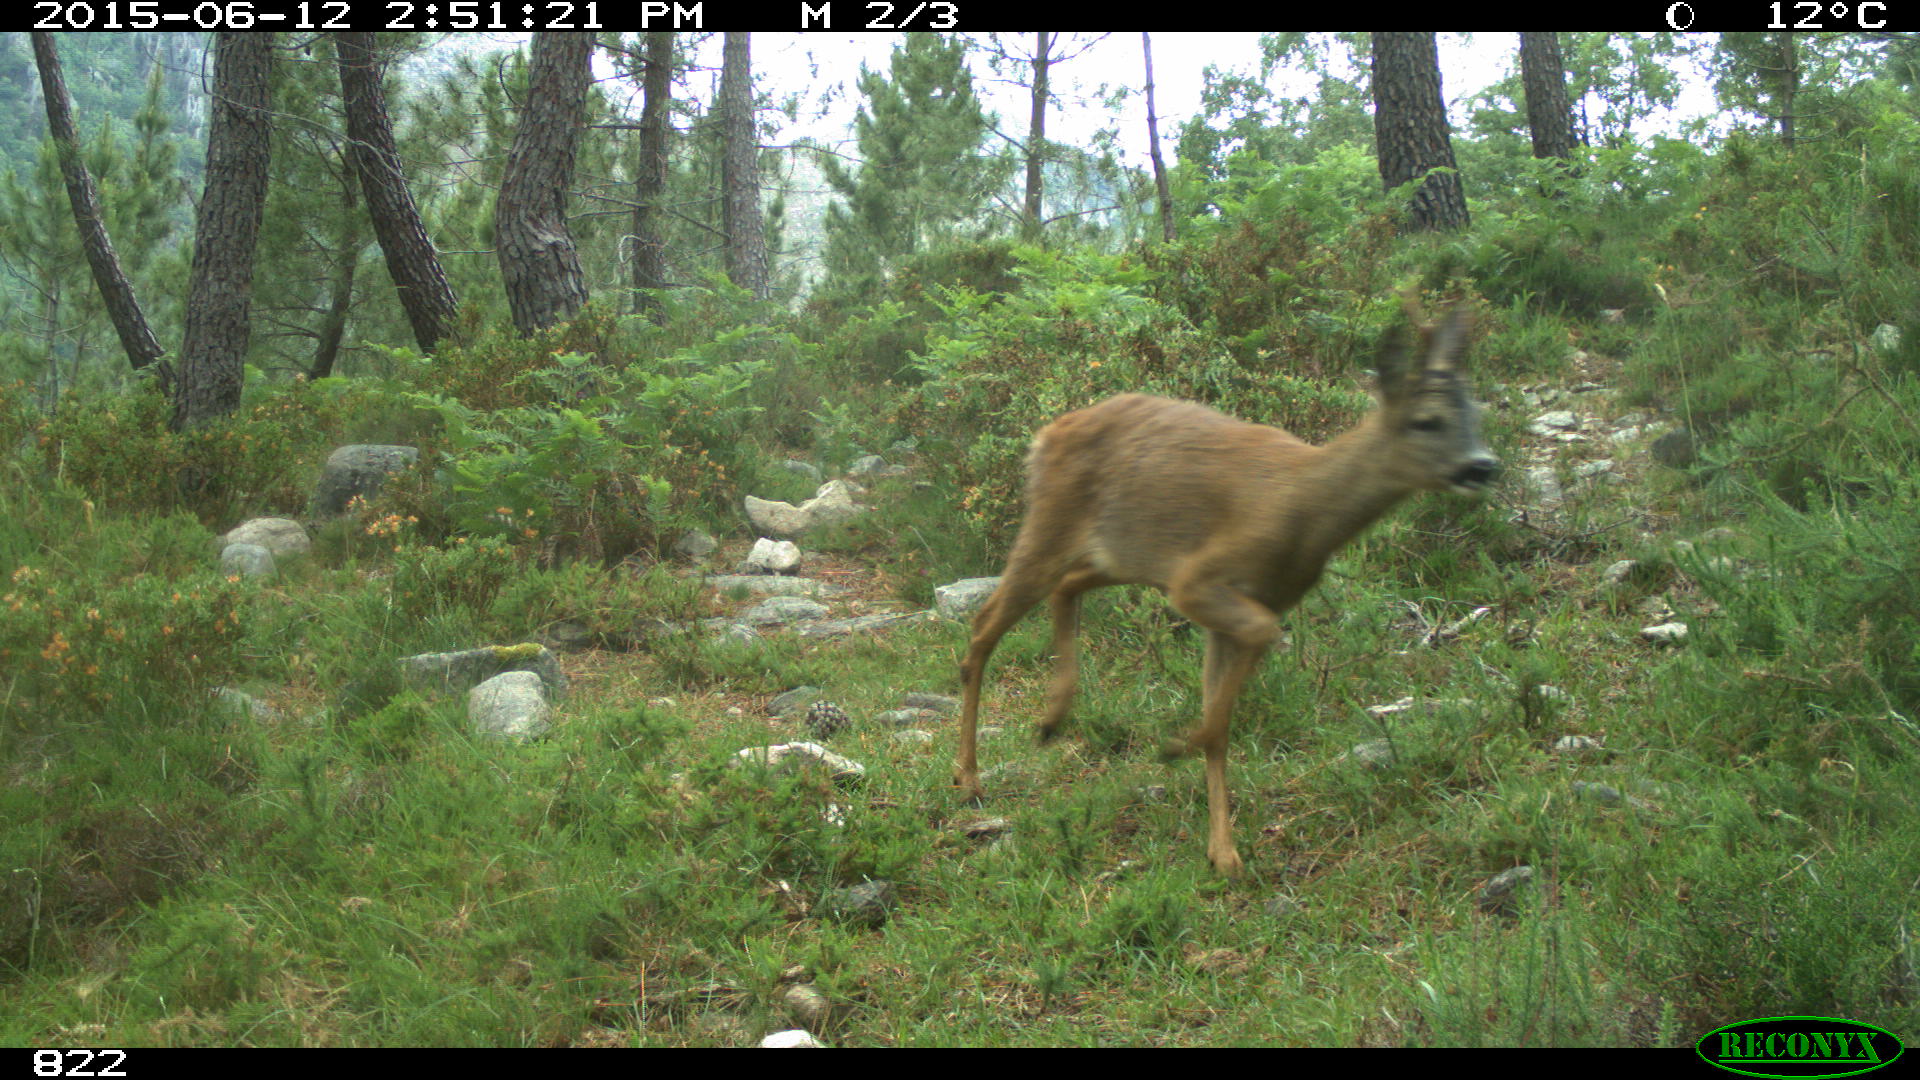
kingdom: Animalia
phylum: Chordata
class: Mammalia
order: Artiodactyla
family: Cervidae
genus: Capreolus
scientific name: Capreolus capreolus
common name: Western roe deer
